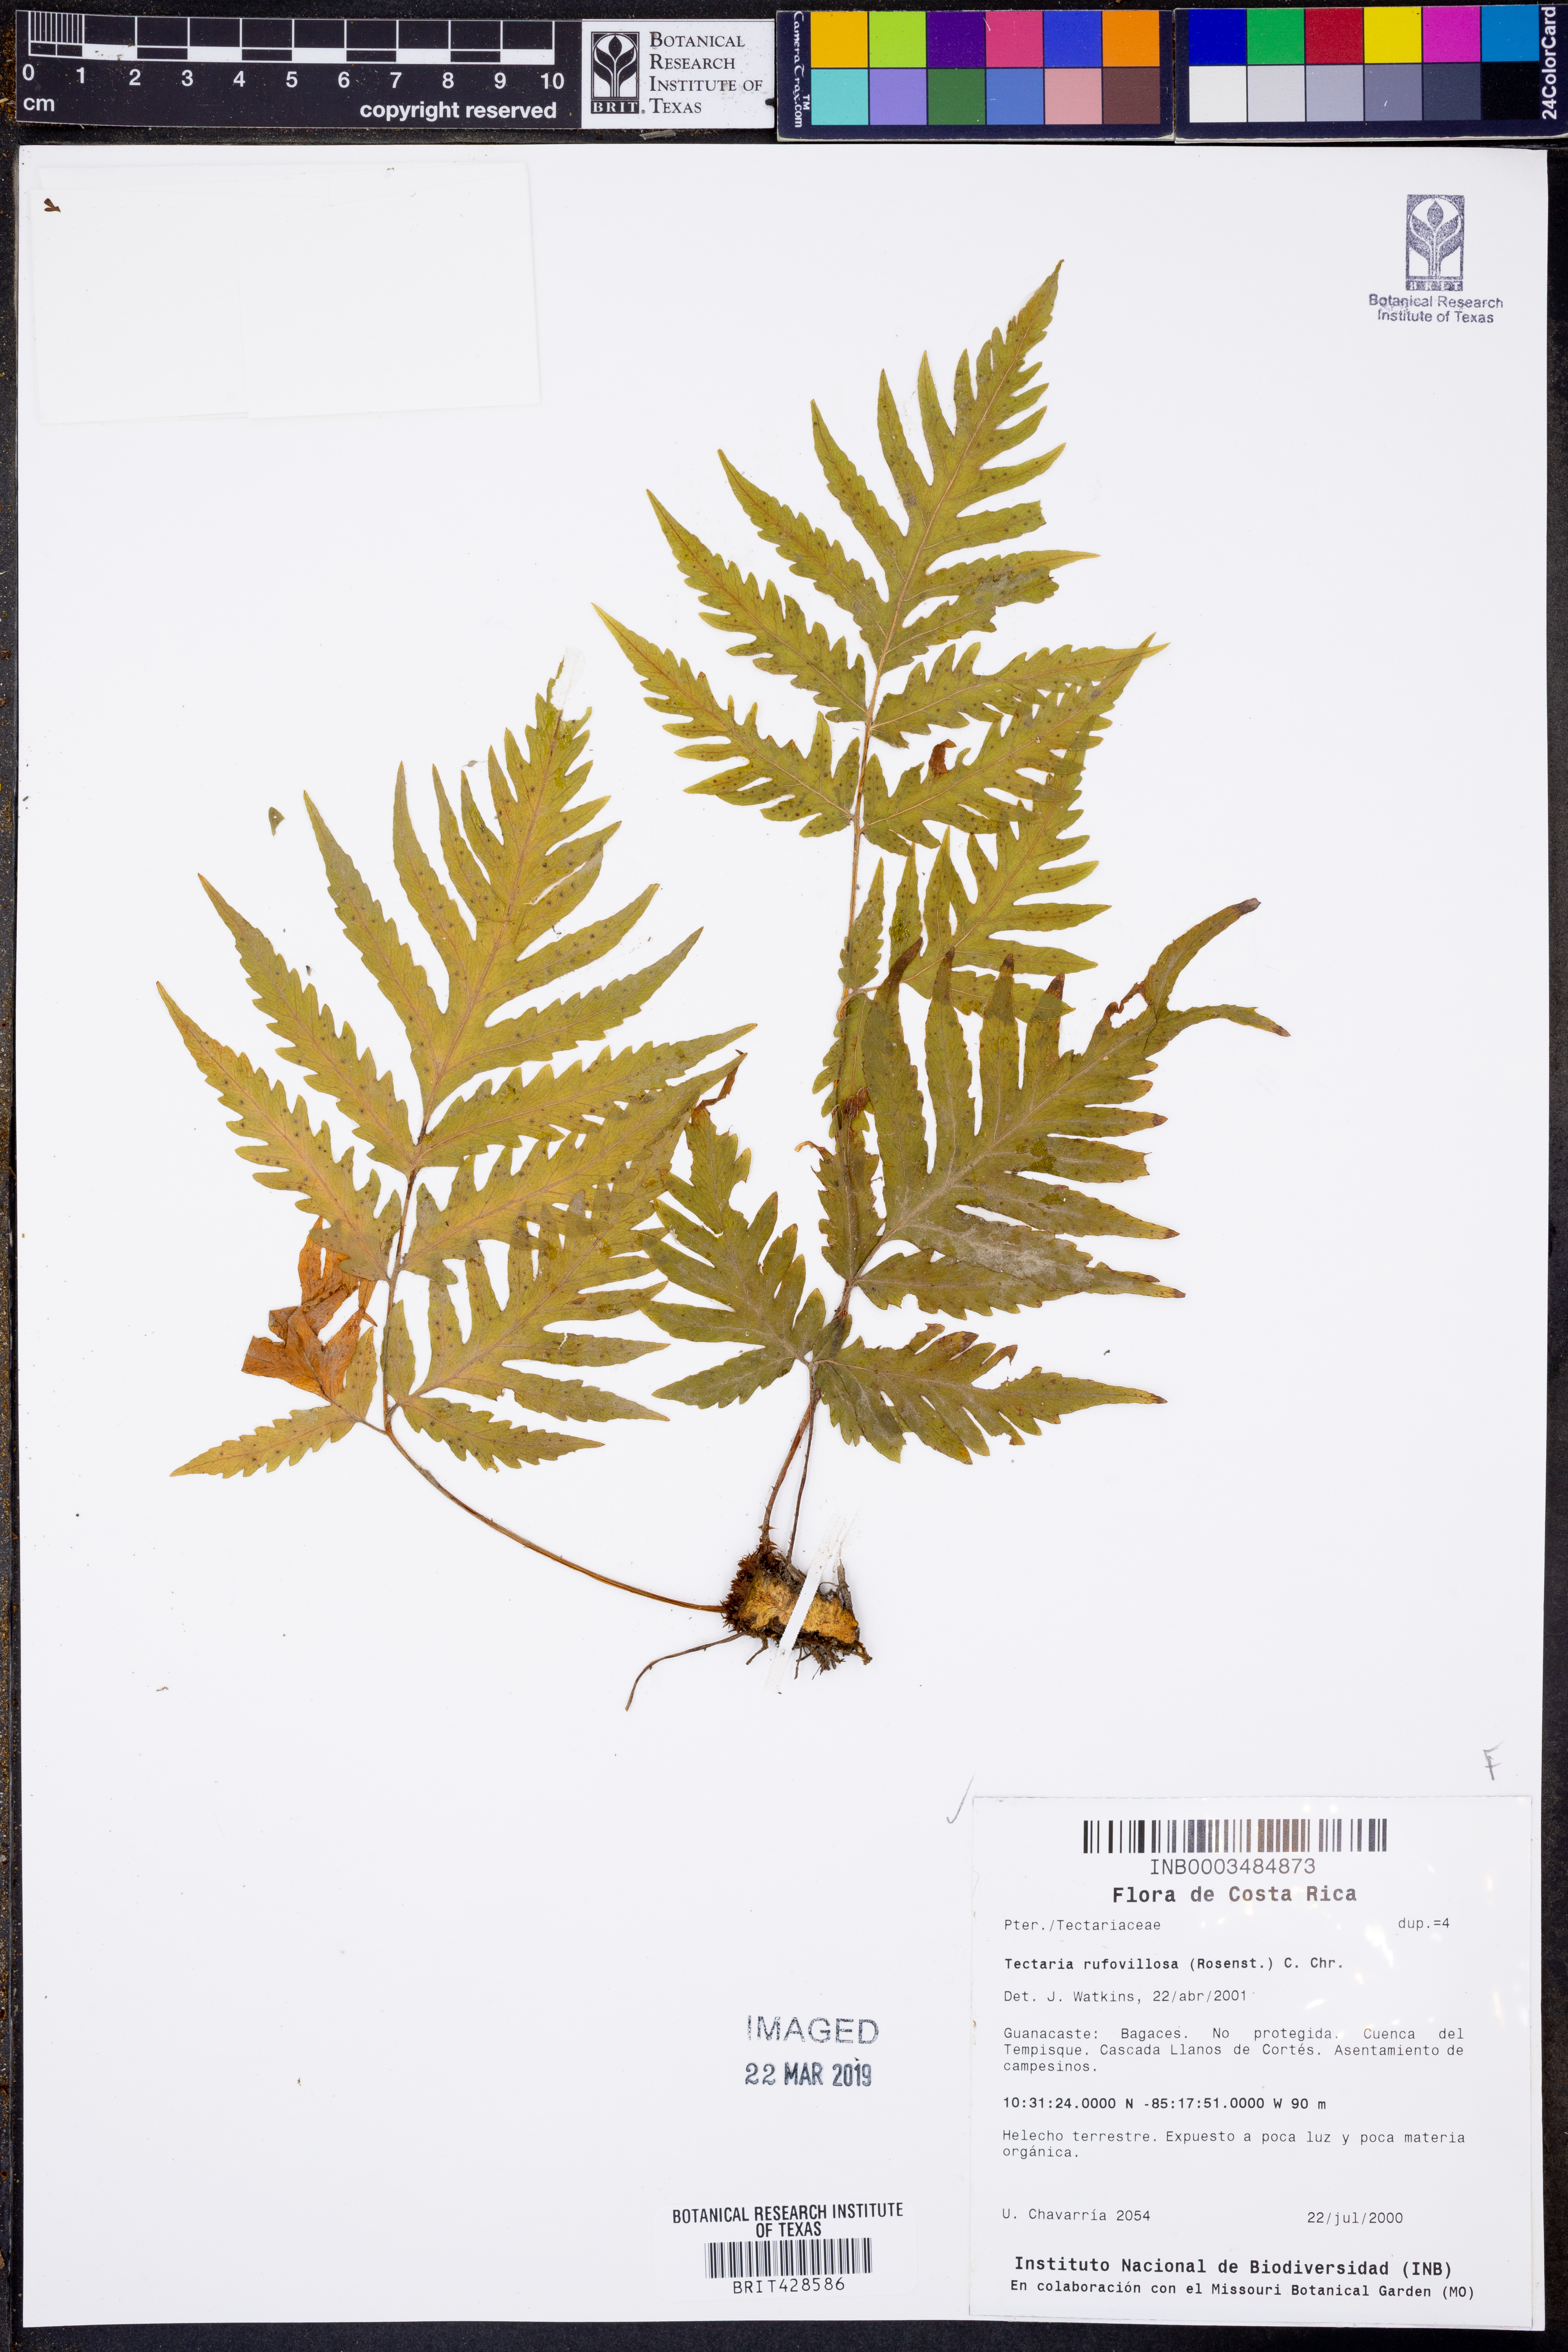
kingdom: Plantae
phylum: Tracheophyta
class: Polypodiopsida
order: Polypodiales
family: Tectariaceae
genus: Tectaria
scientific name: Tectaria rufovillosa
